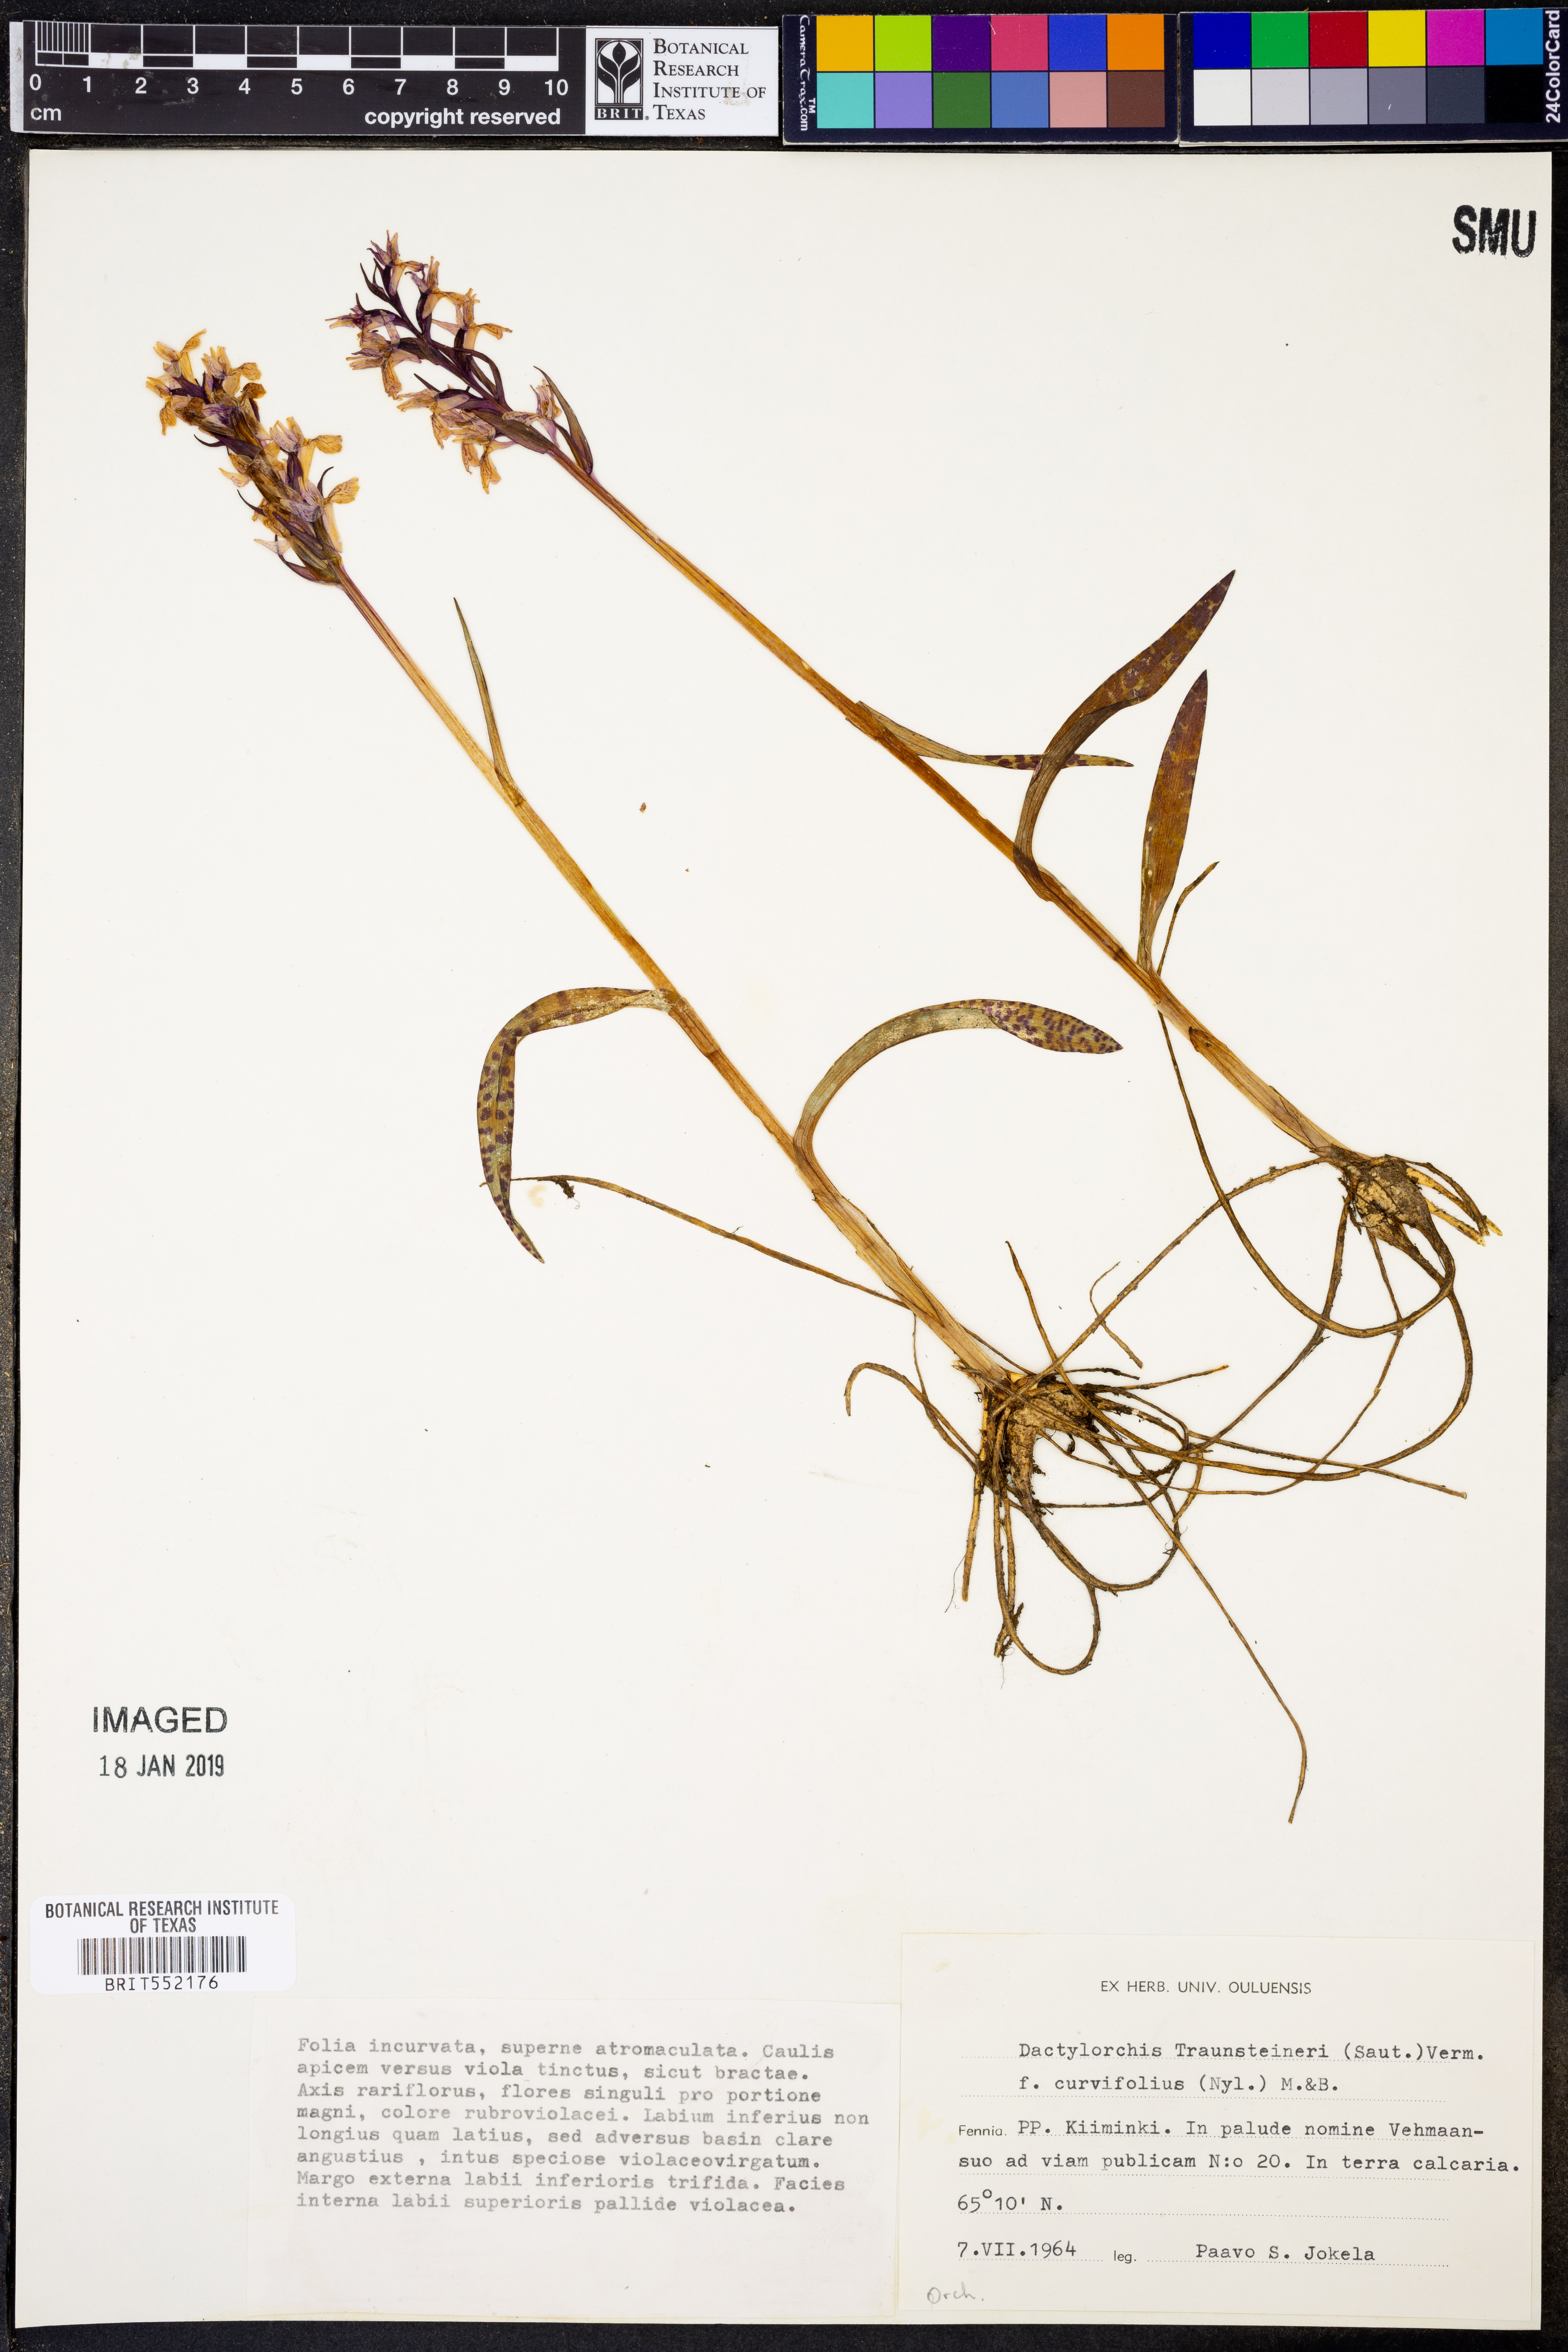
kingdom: Plantae
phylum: Tracheophyta
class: Liliopsida
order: Asparagales
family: Orchidaceae
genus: Dactylorhiza
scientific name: Dactylorhiza majalis
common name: Marsh orchid
